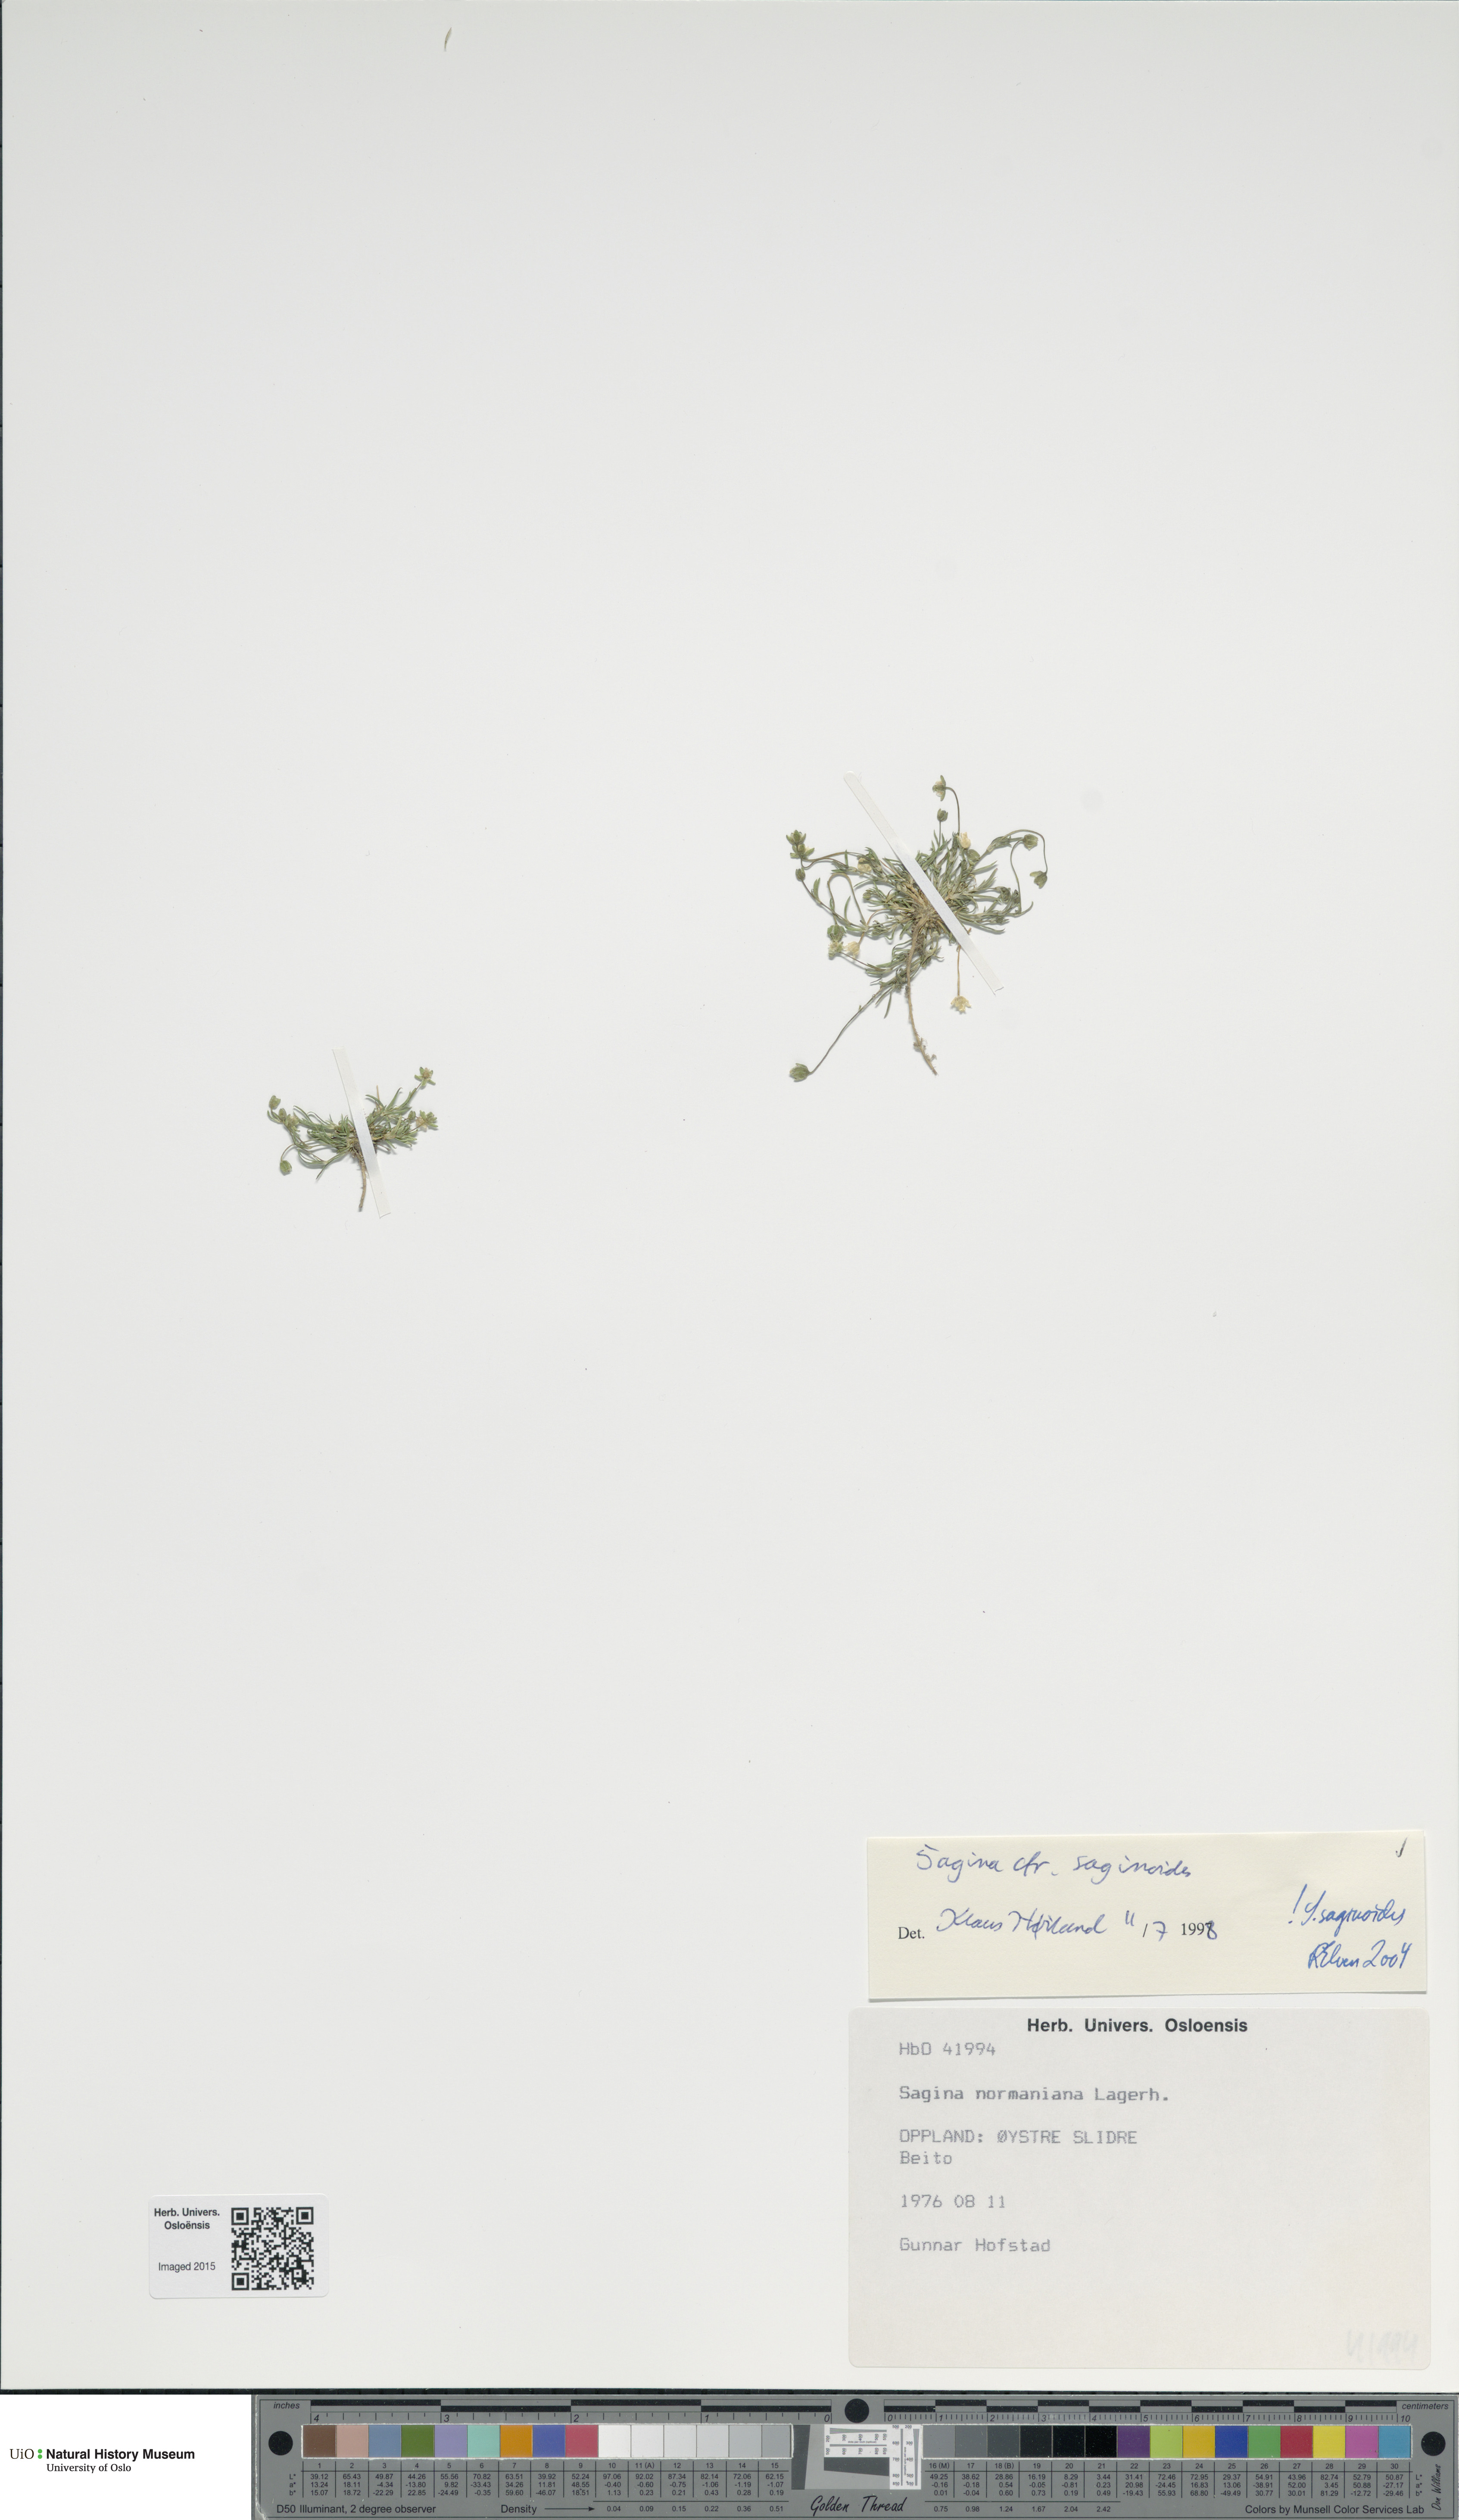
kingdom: Plantae
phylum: Tracheophyta
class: Magnoliopsida
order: Caryophyllales
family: Caryophyllaceae
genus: Sagina
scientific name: Sagina saginoides
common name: Alpine pearlwort
